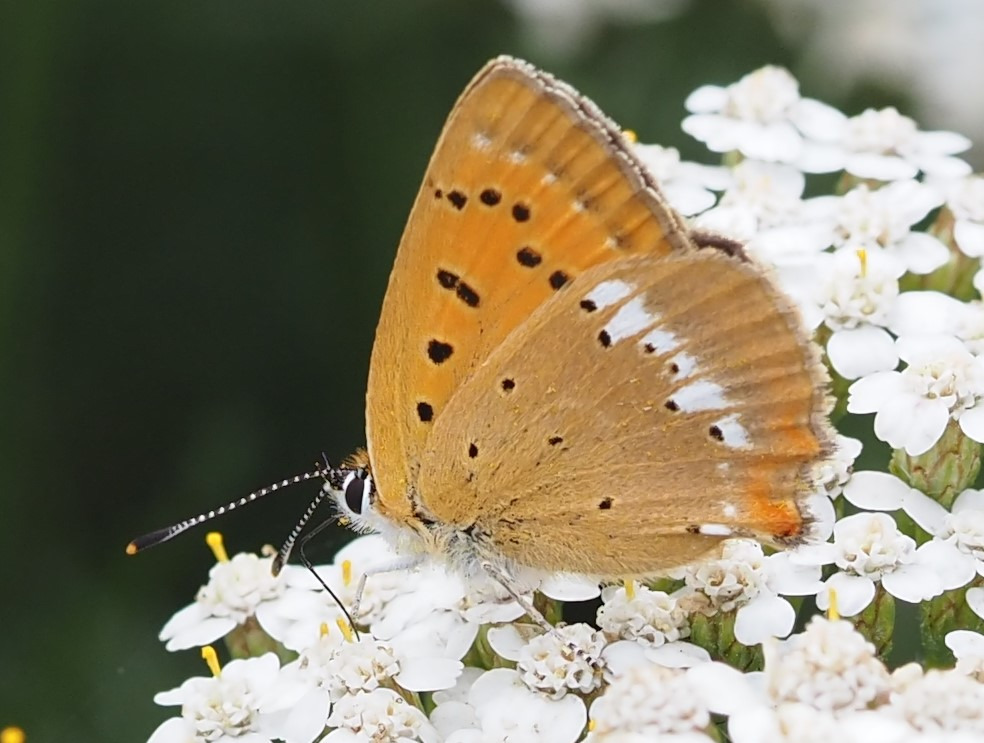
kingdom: Animalia
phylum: Arthropoda
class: Insecta
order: Lepidoptera
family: Lycaenidae
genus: Lycaena
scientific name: Lycaena virgaureae
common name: Dukatsommerfugl
